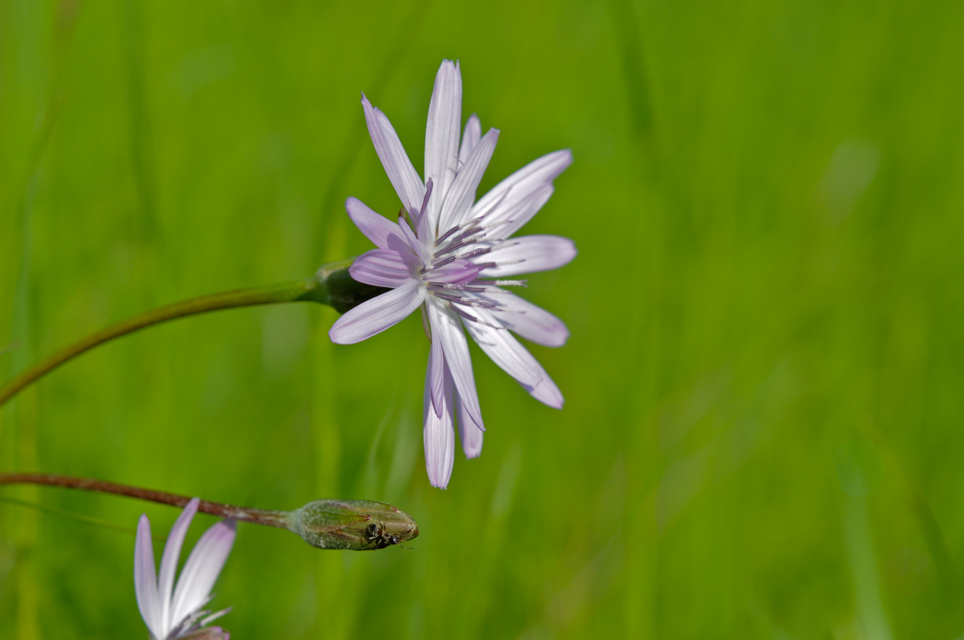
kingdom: Plantae
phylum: Tracheophyta
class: Magnoliopsida
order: Asterales
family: Asteraceae
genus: Scorzonera
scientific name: Scorzonera purpurea
